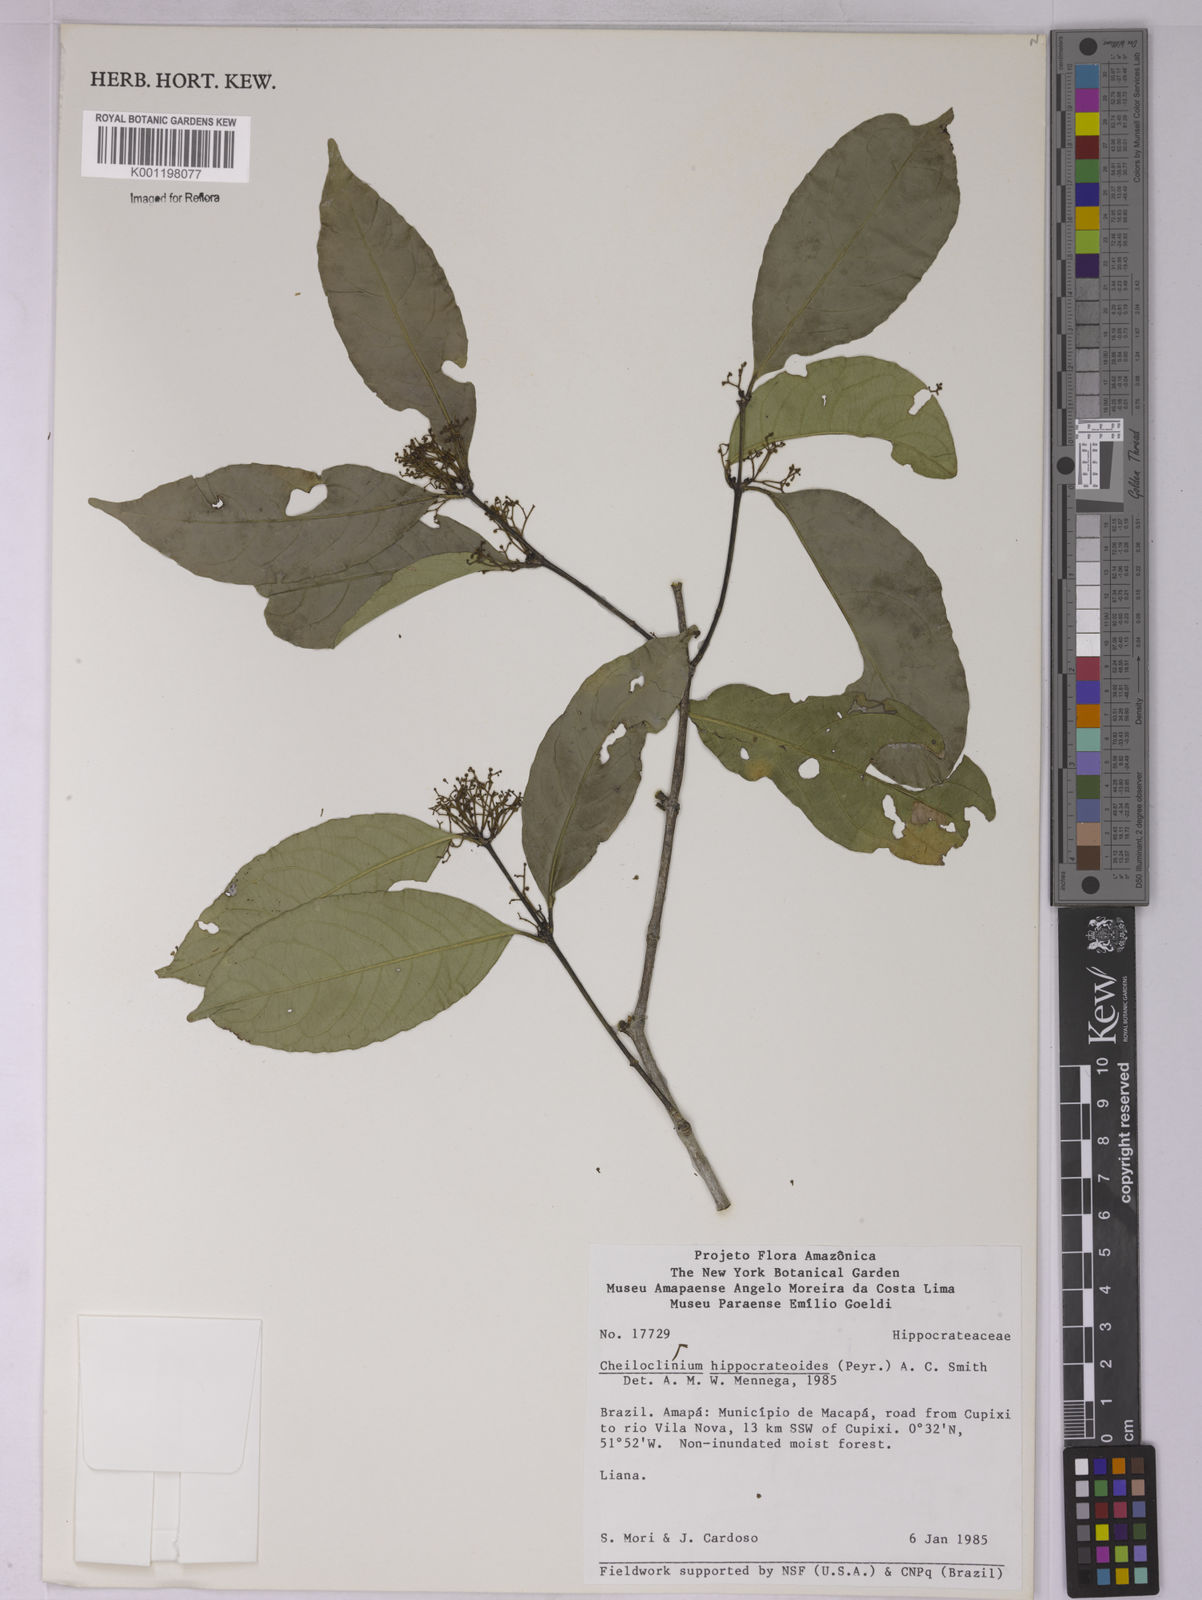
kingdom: Plantae
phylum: Tracheophyta
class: Magnoliopsida
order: Celastrales
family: Celastraceae
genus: Cheiloclinium
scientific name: Cheiloclinium hippocrateoides
